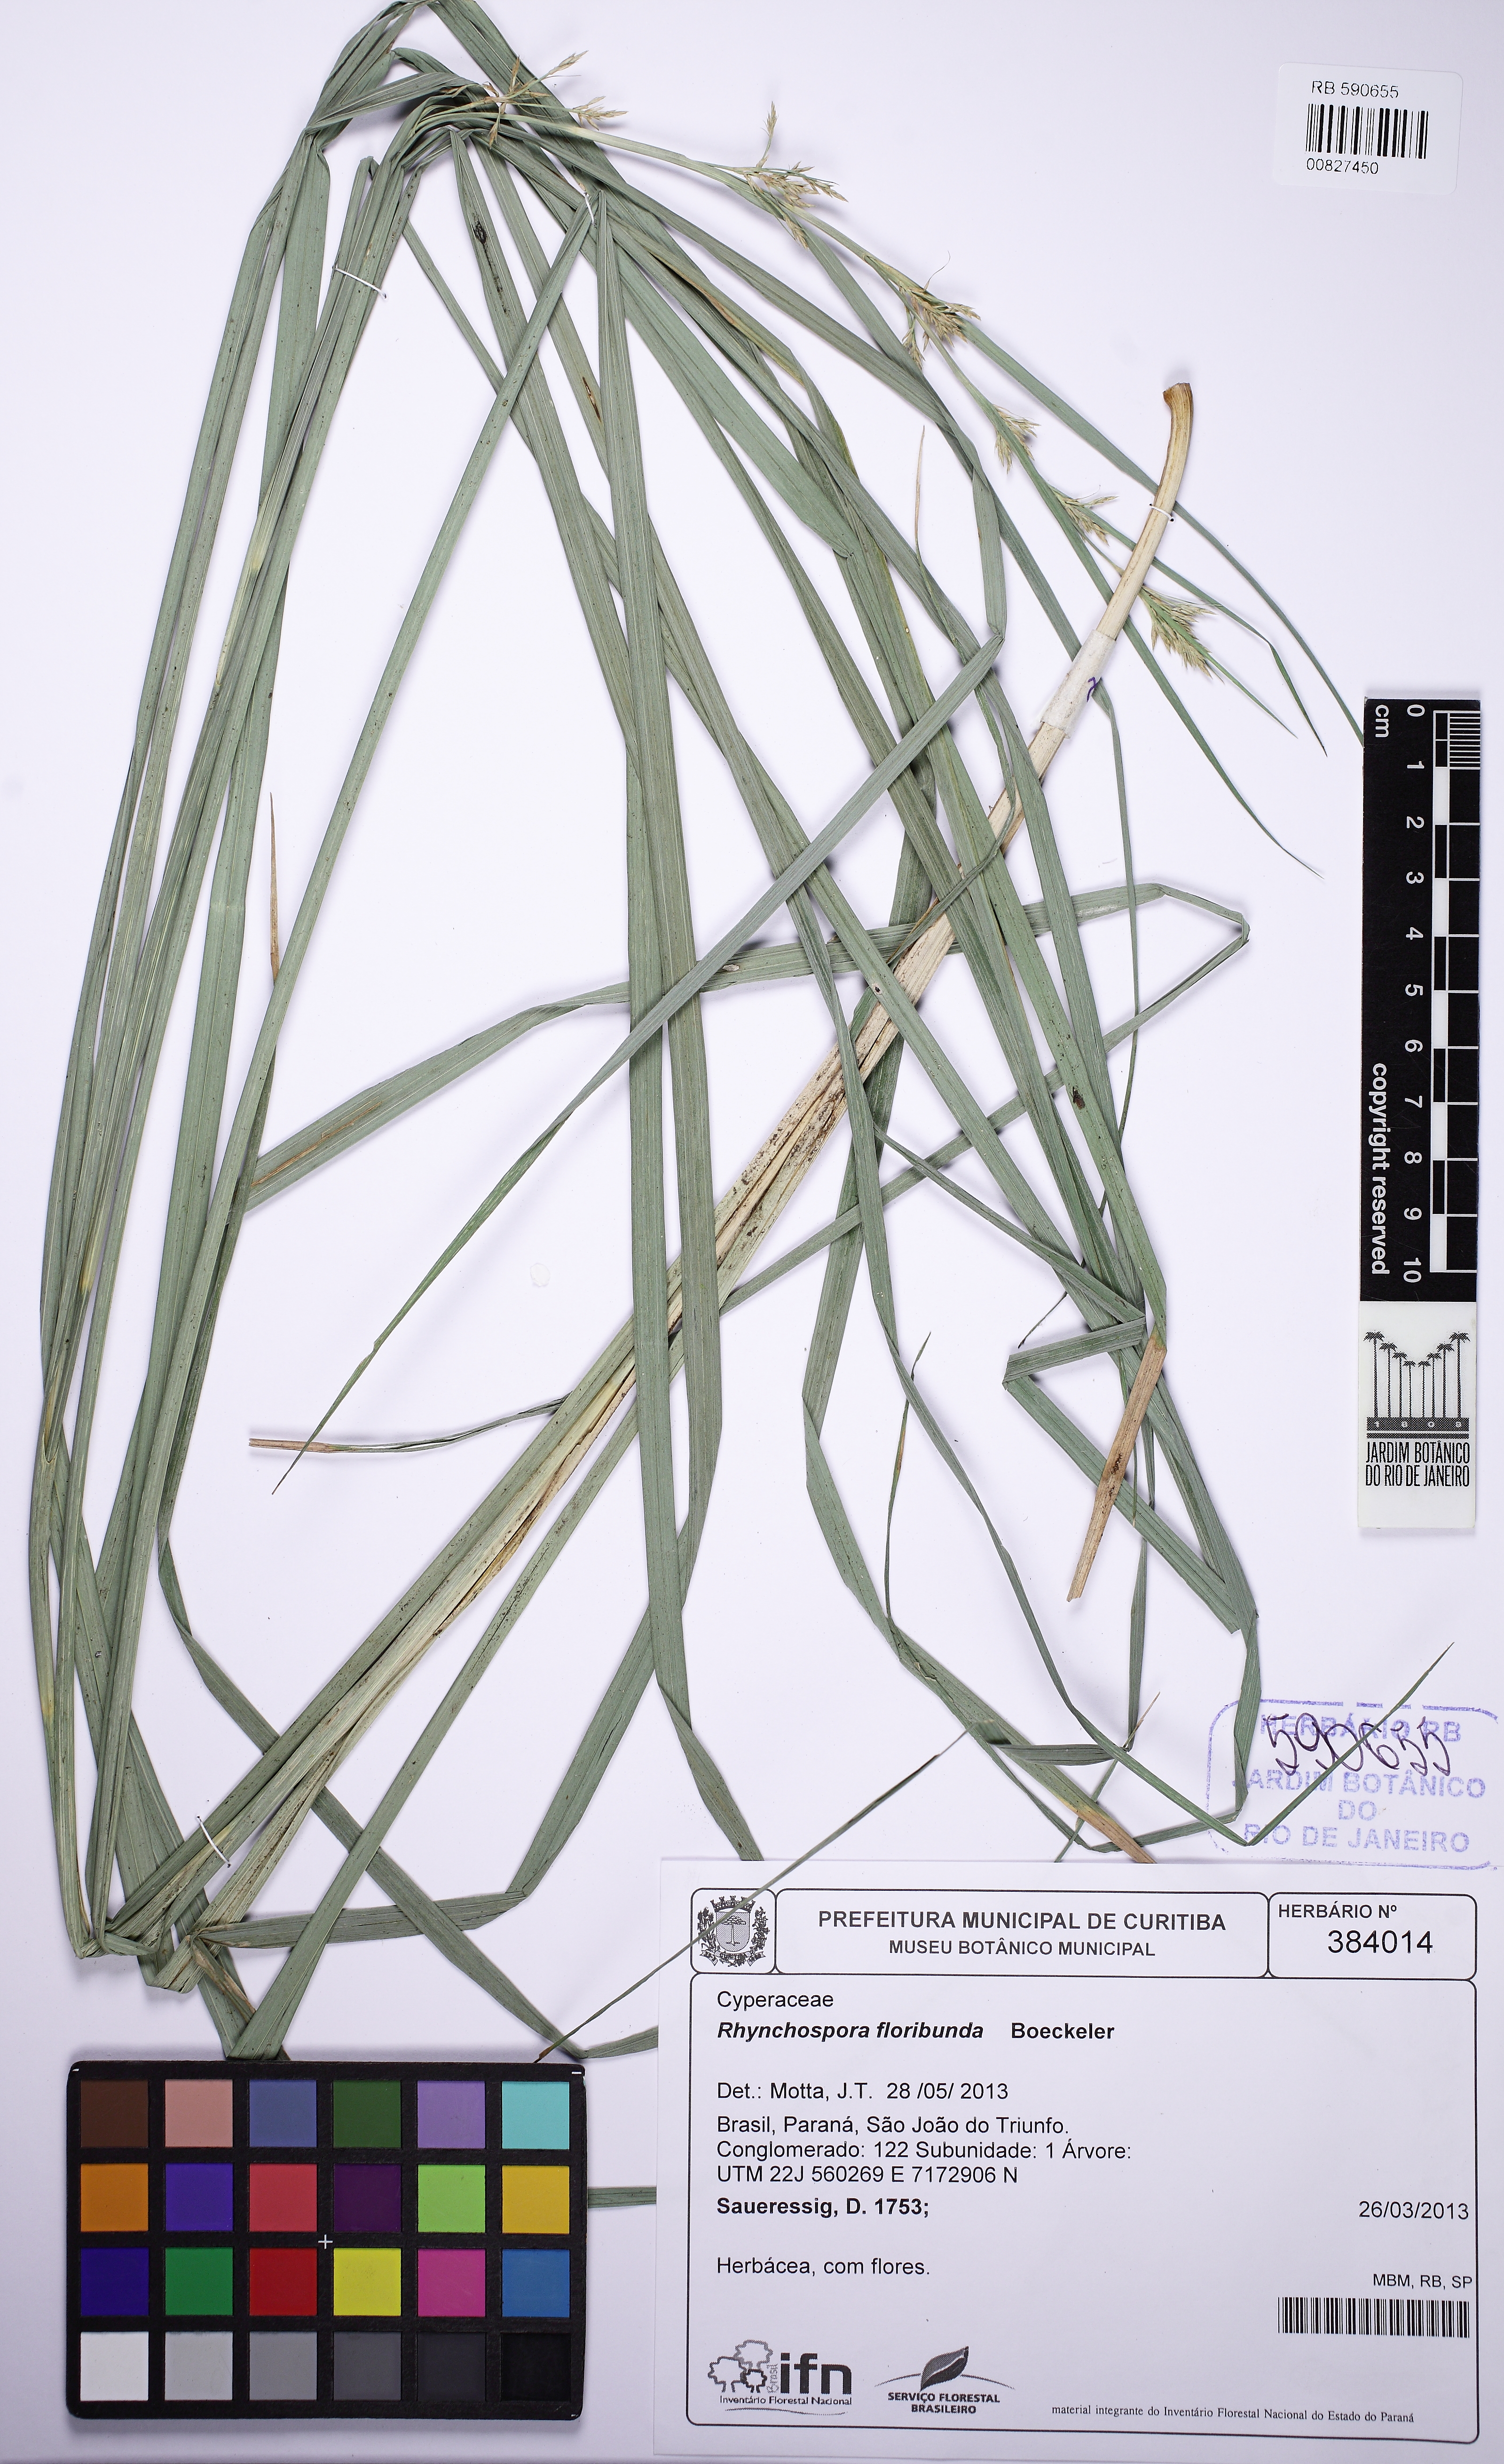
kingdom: Plantae
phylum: Tracheophyta
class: Liliopsida
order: Poales
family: Cyperaceae
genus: Rhynchospora
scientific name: Rhynchospora glaziovii
